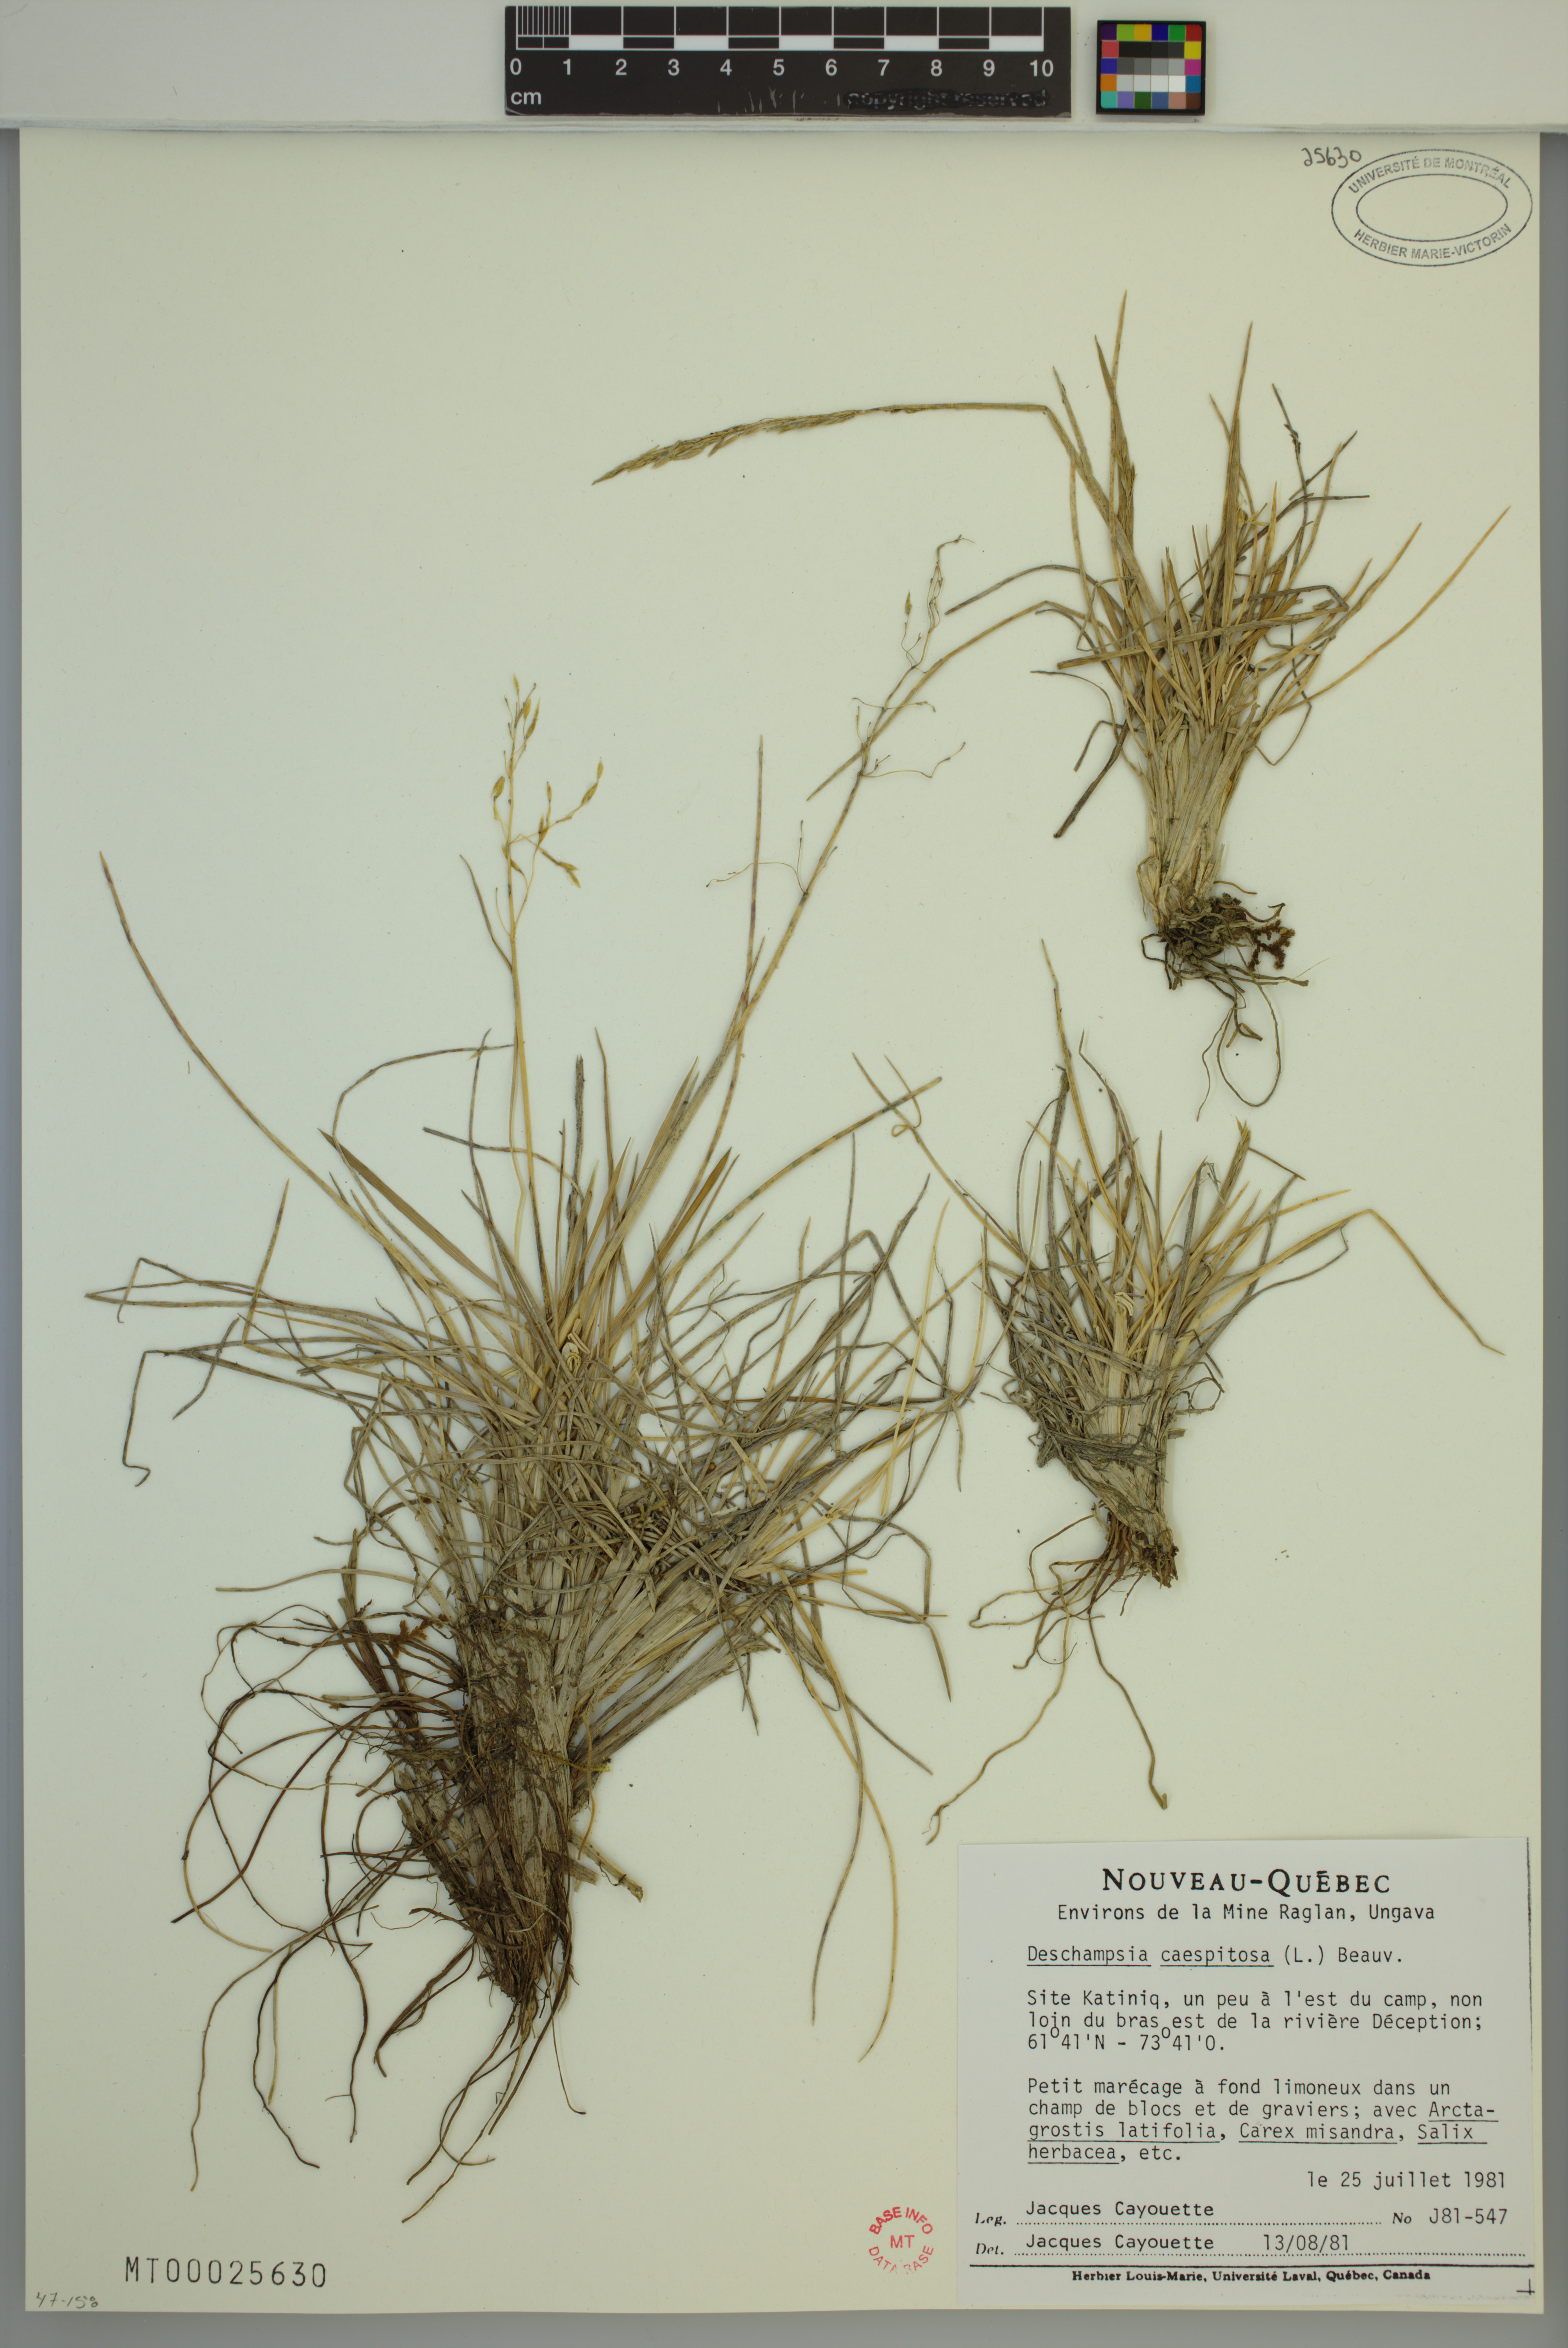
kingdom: Plantae
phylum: Tracheophyta
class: Liliopsida
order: Poales
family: Poaceae
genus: Deschampsia
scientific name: Deschampsia cespitosa
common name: Tufted hair-grass
